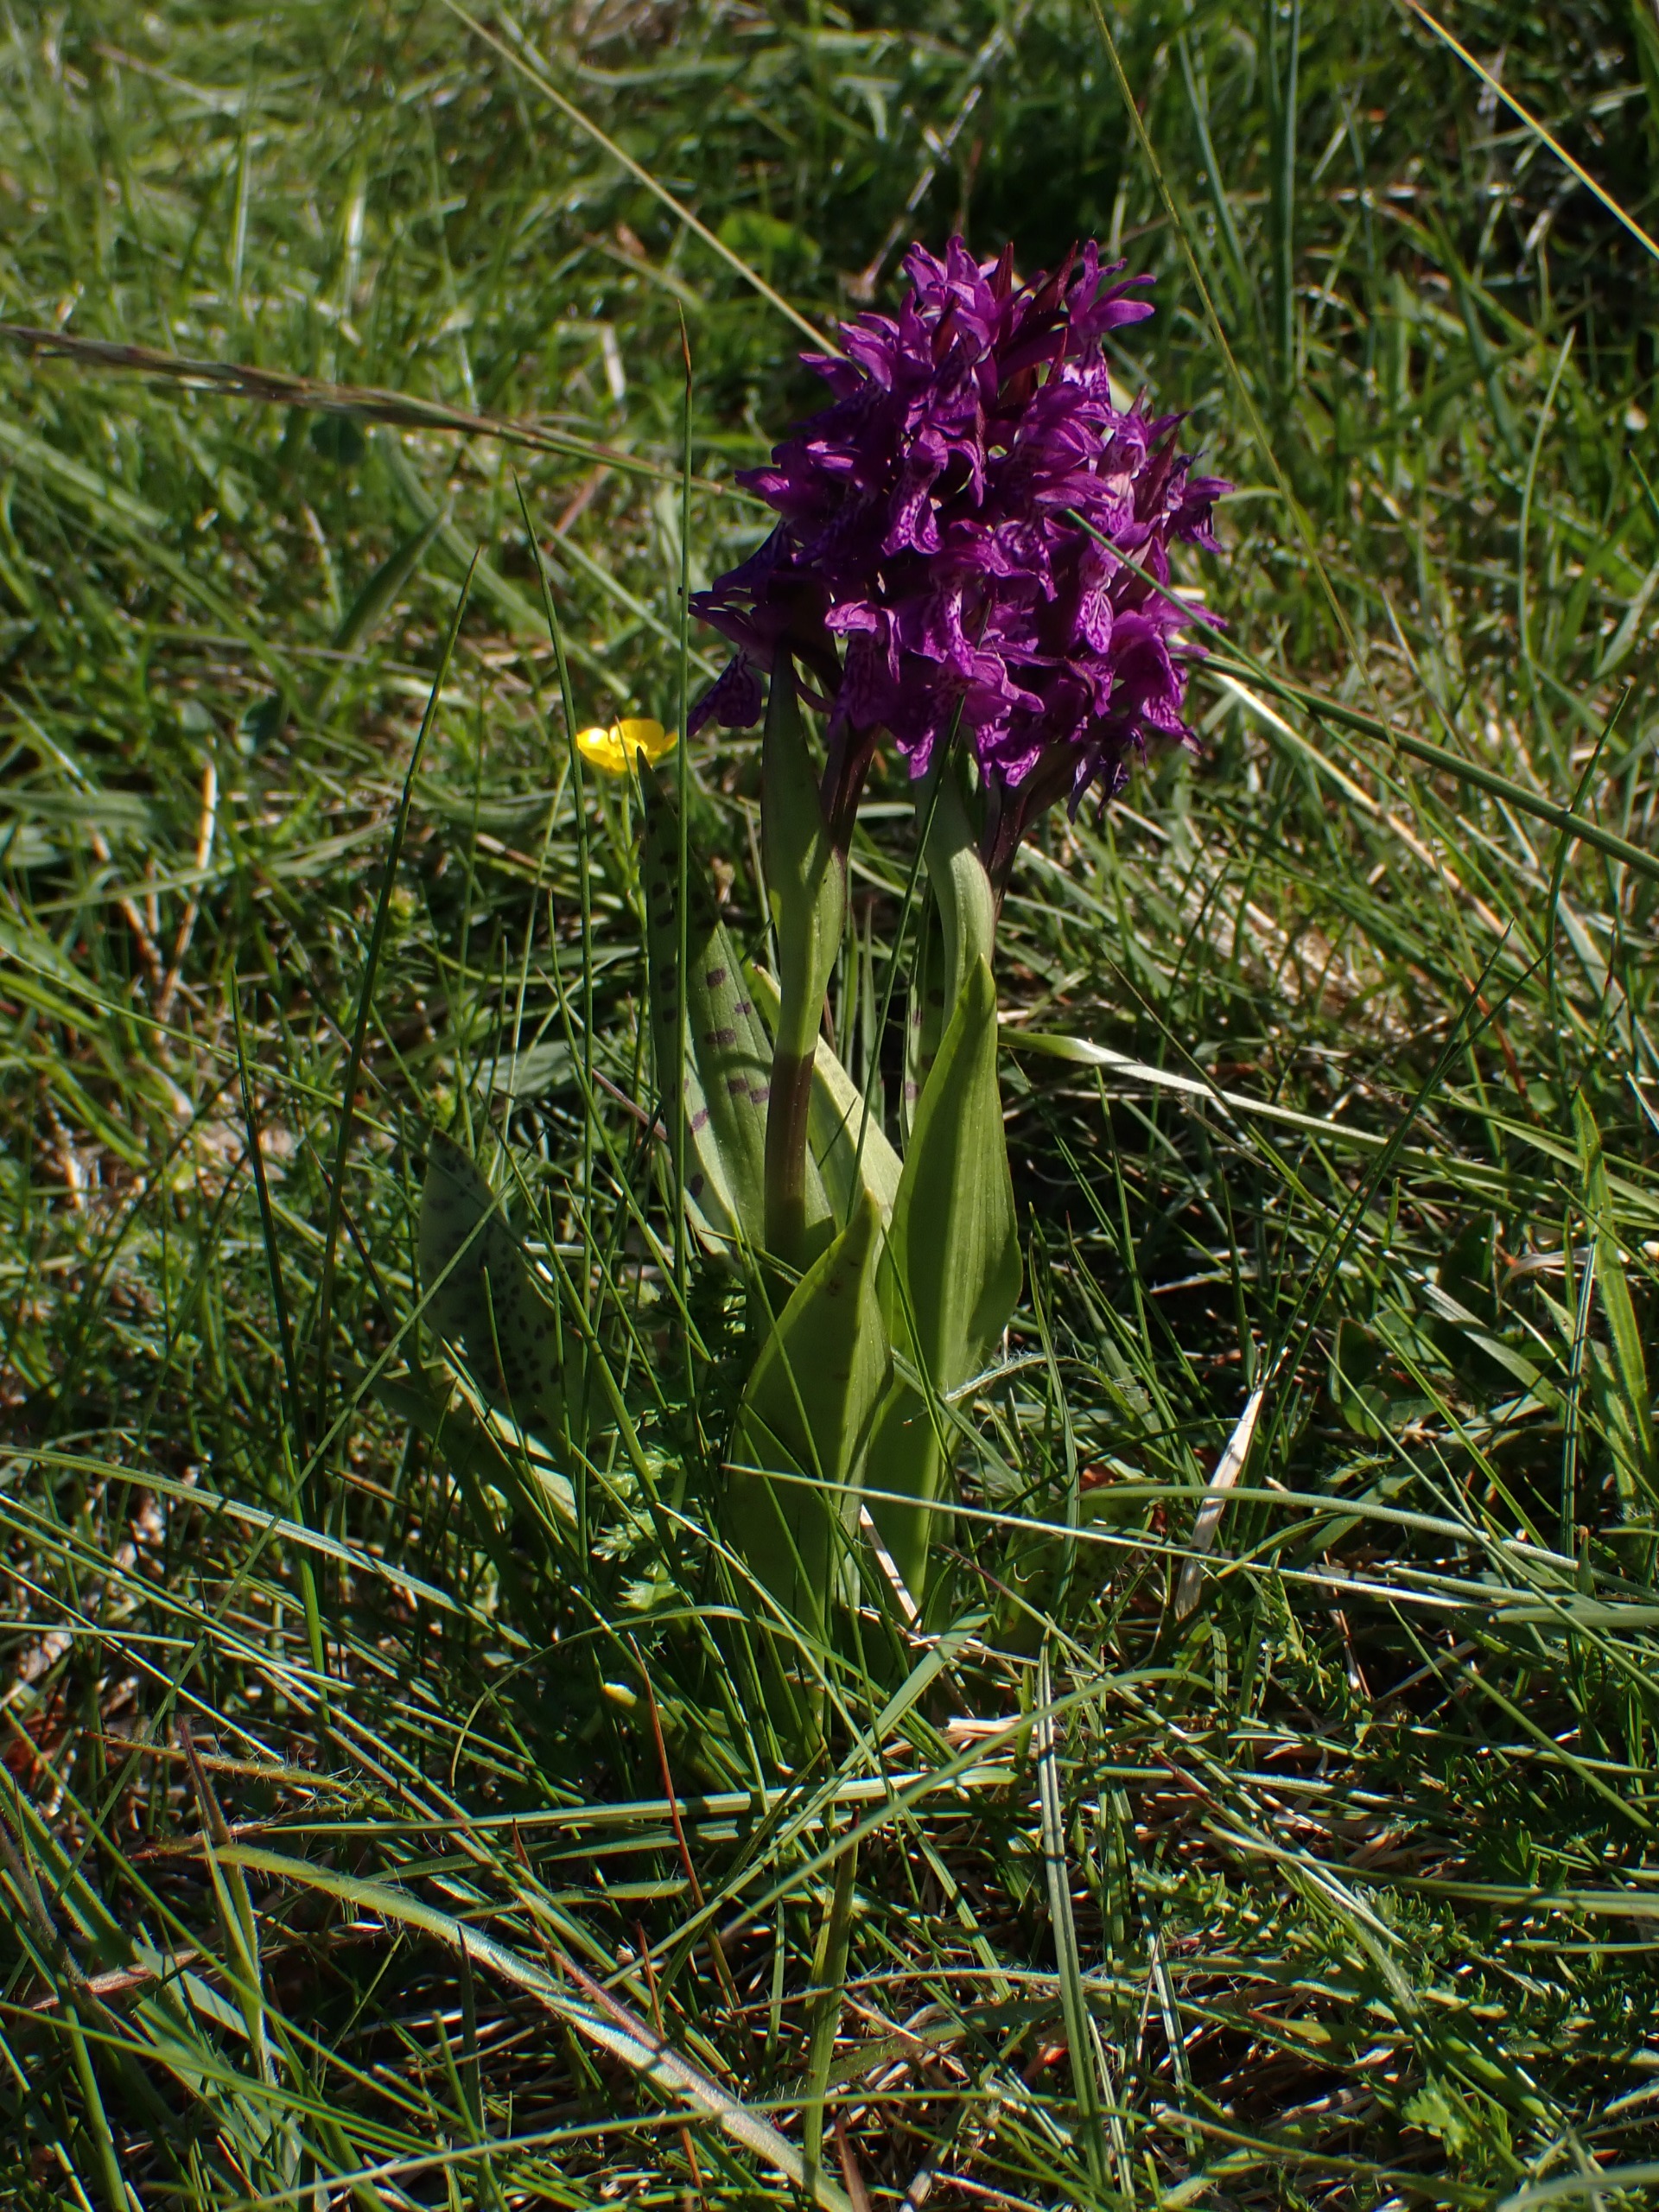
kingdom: Plantae
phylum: Tracheophyta
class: Liliopsida
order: Asparagales
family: Orchidaceae
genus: Dactylorhiza
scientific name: Dactylorhiza majalis
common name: Maj-gøgeurt
